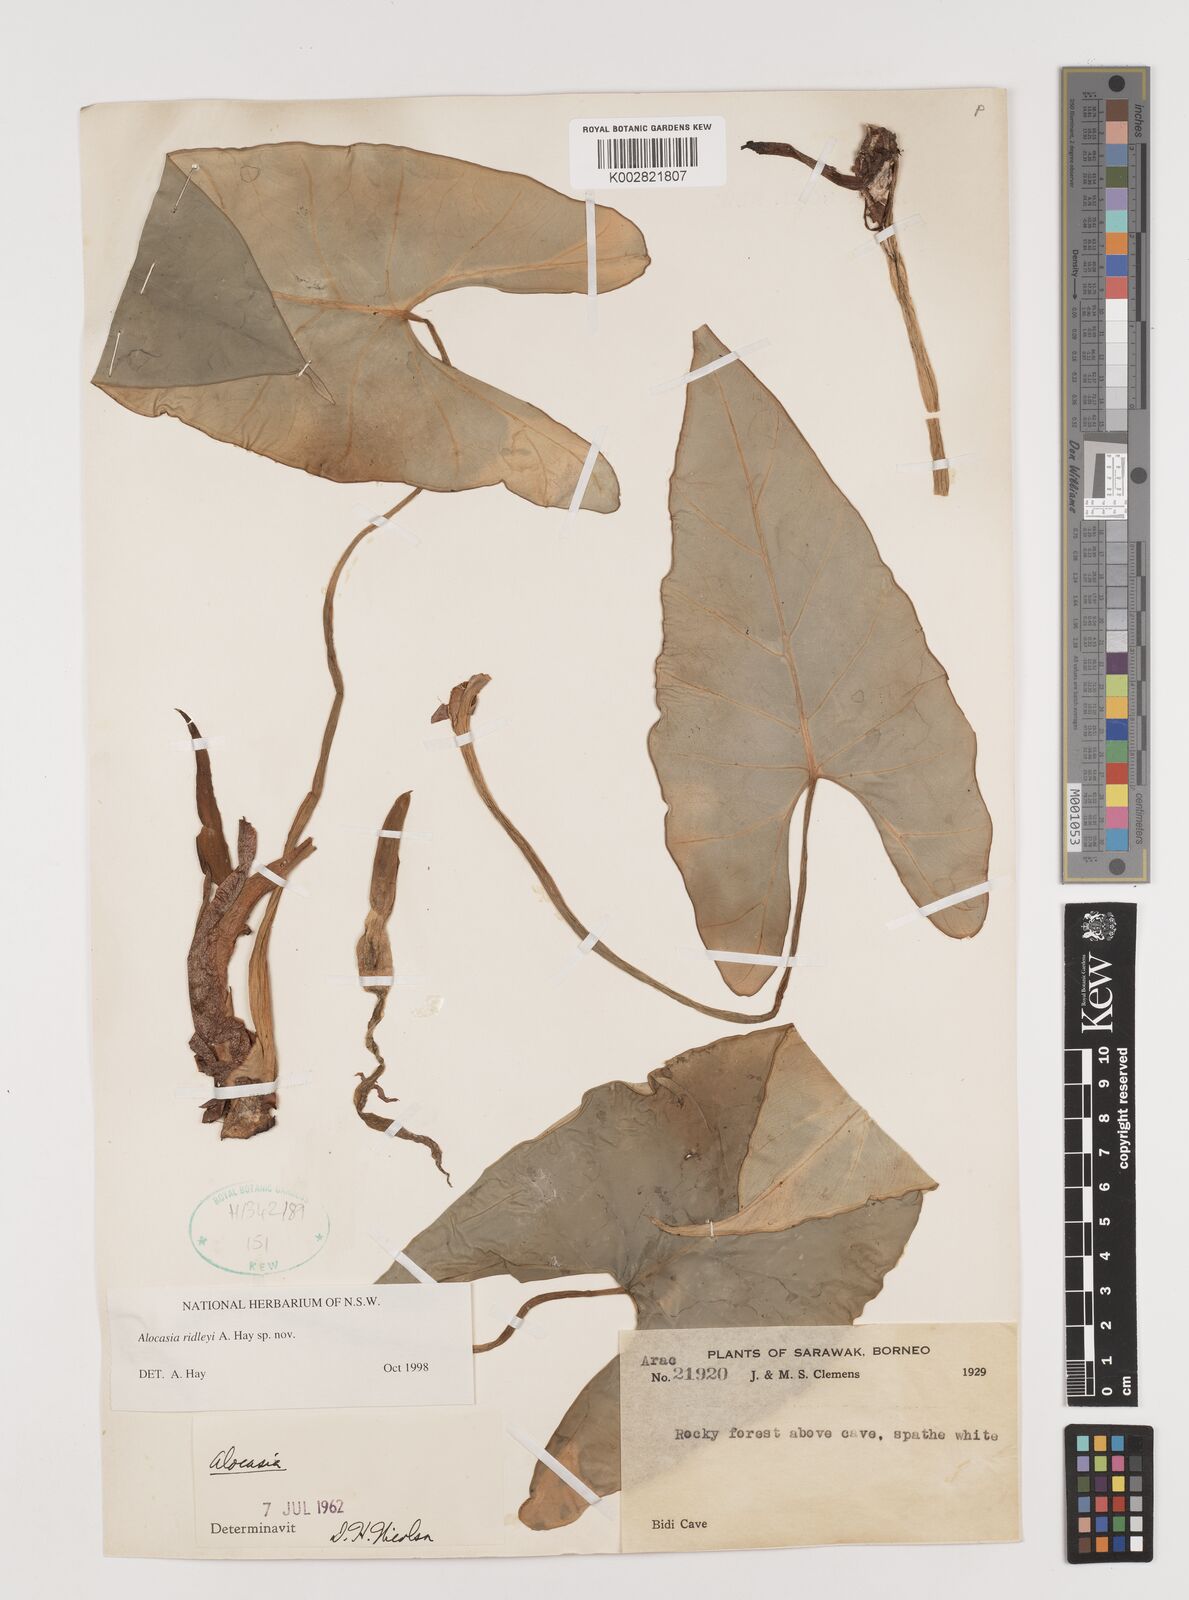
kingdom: Plantae
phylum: Tracheophyta
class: Liliopsida
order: Alismatales
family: Araceae
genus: Alocasia
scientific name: Alocasia ridleyi
